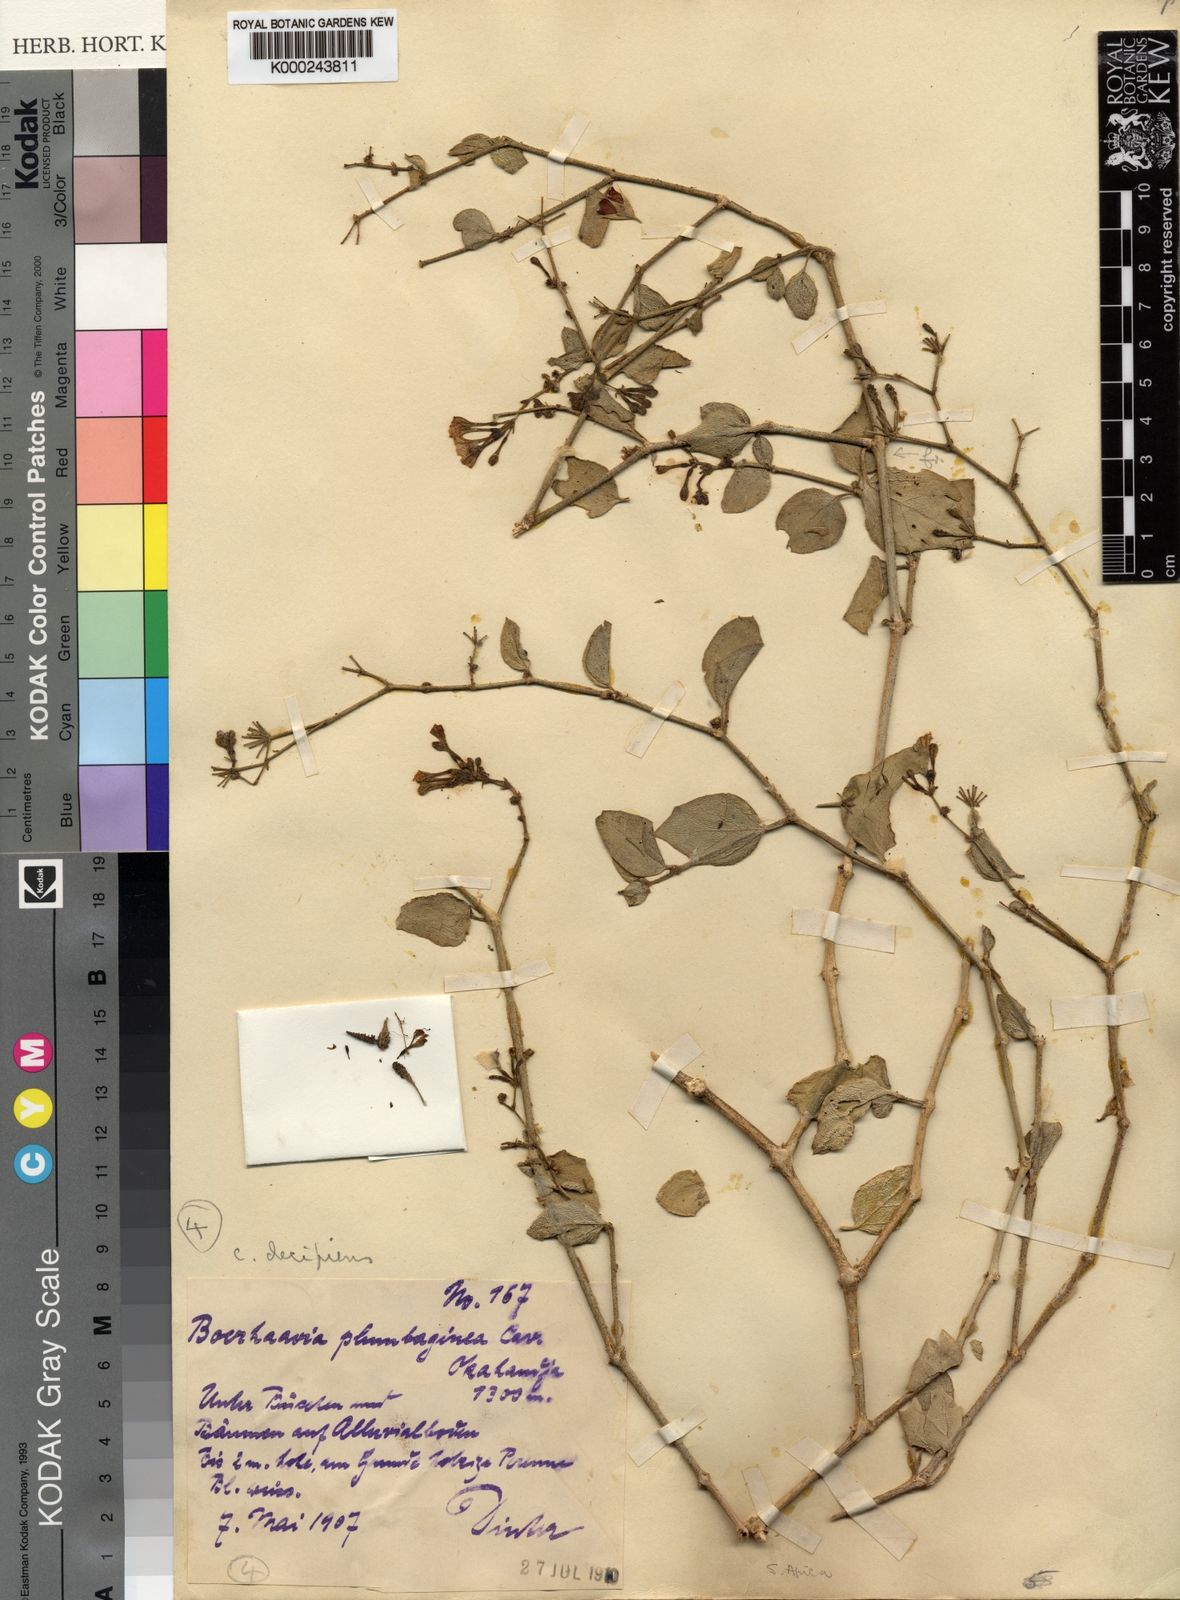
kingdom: Plantae
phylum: Tracheophyta
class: Magnoliopsida
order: Caryophyllales
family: Nyctaginaceae
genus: Commicarpus
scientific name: Commicarpus decipiens
